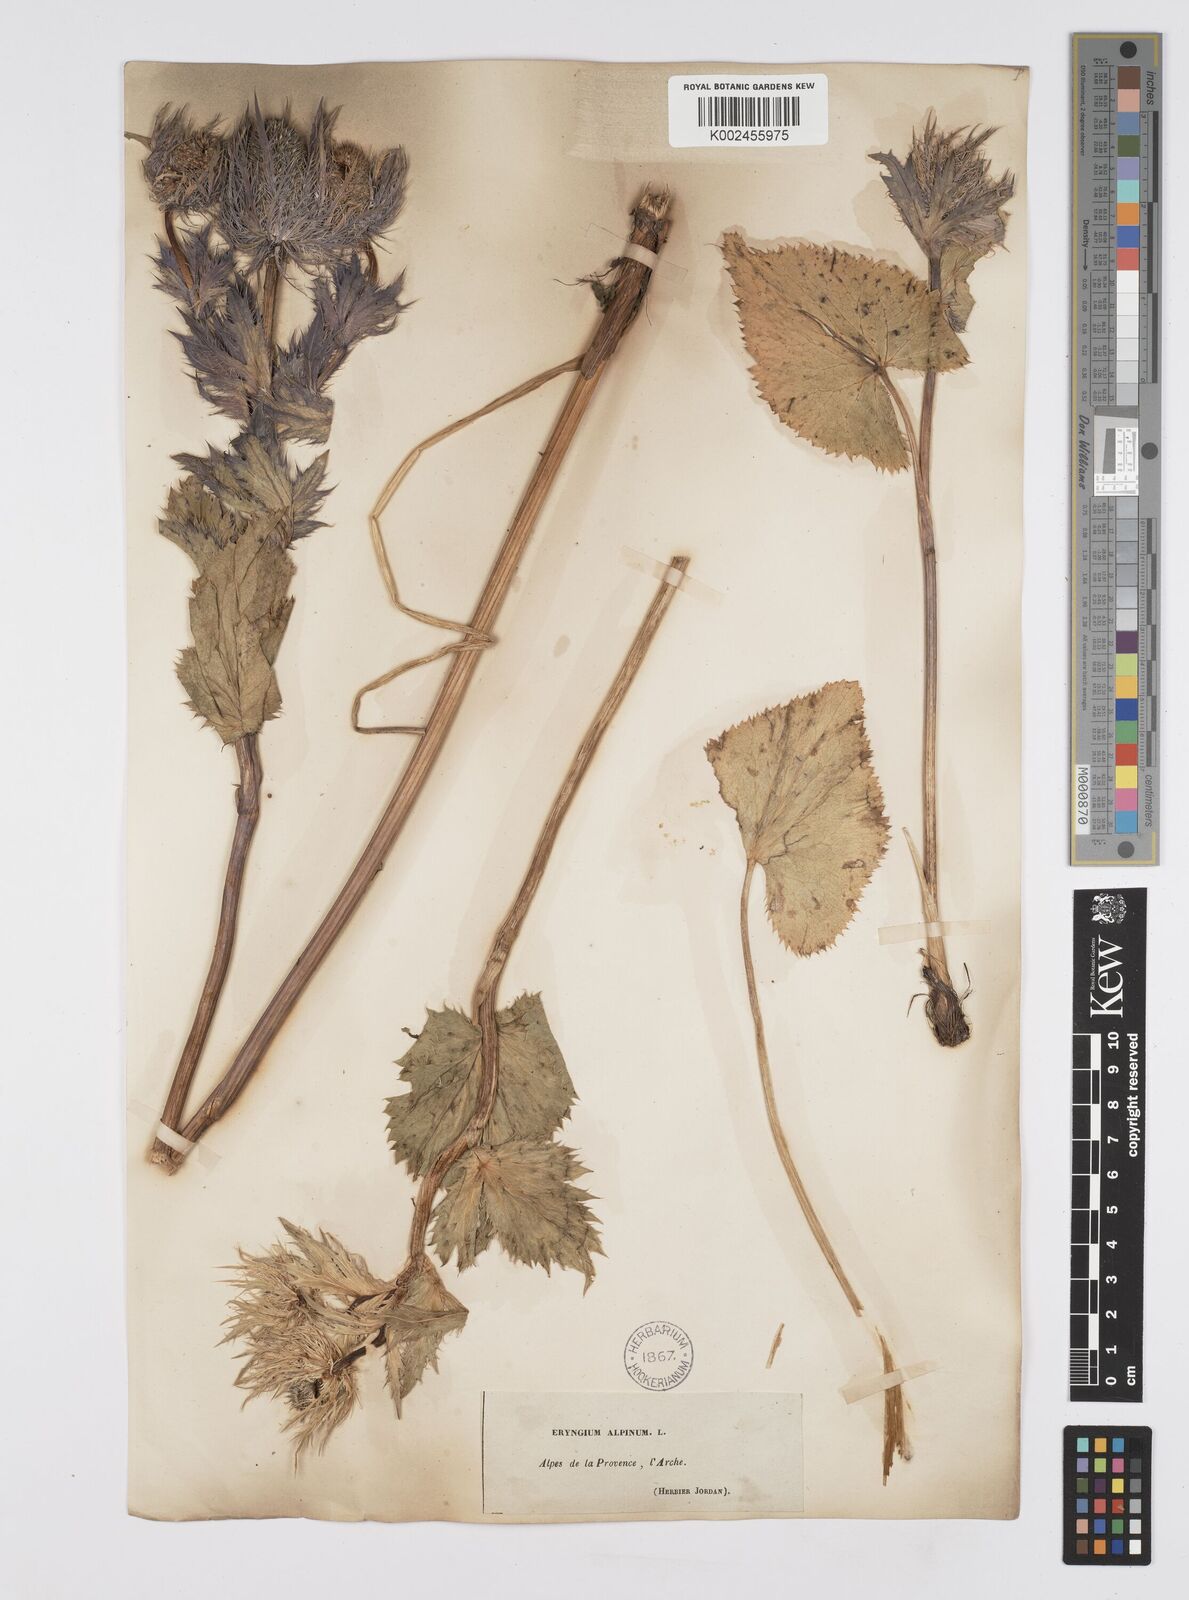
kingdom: Plantae
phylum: Tracheophyta
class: Magnoliopsida
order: Apiales
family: Apiaceae
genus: Eryngium
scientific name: Eryngium alpinum
